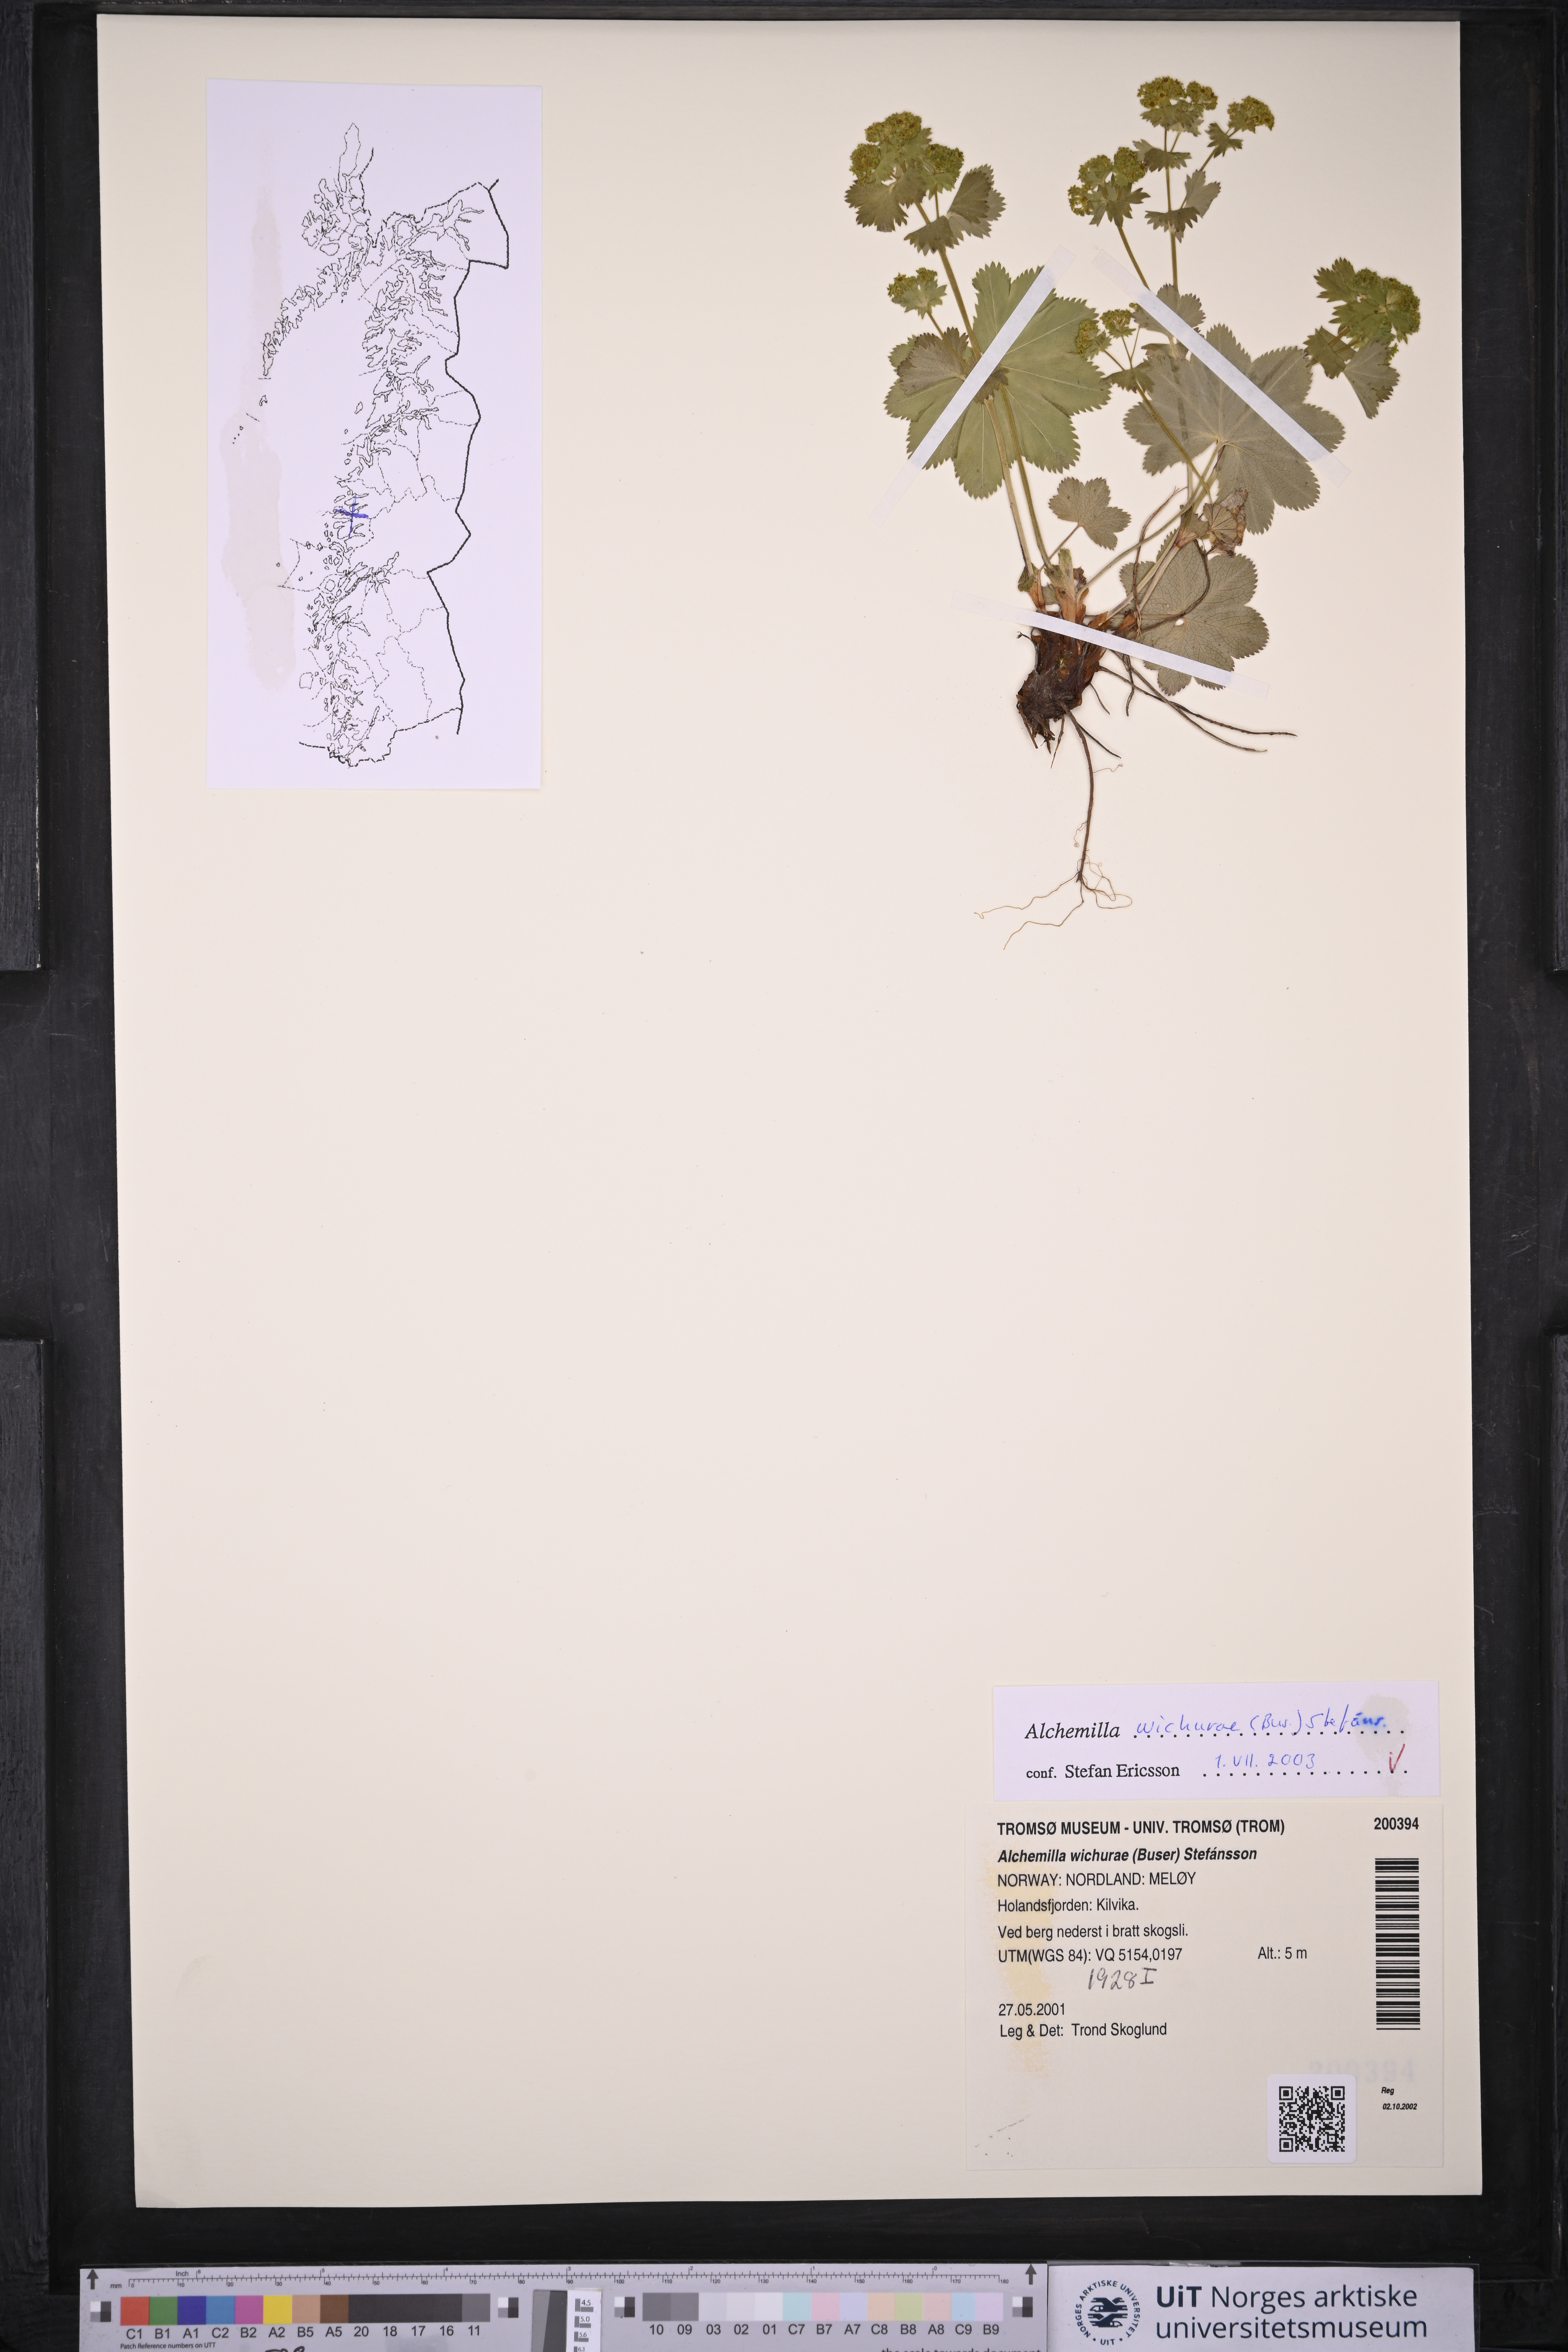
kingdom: Plantae
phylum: Tracheophyta
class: Magnoliopsida
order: Rosales
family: Rosaceae
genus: Alchemilla
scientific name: Alchemilla wichurae
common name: Rock lady's mantle
